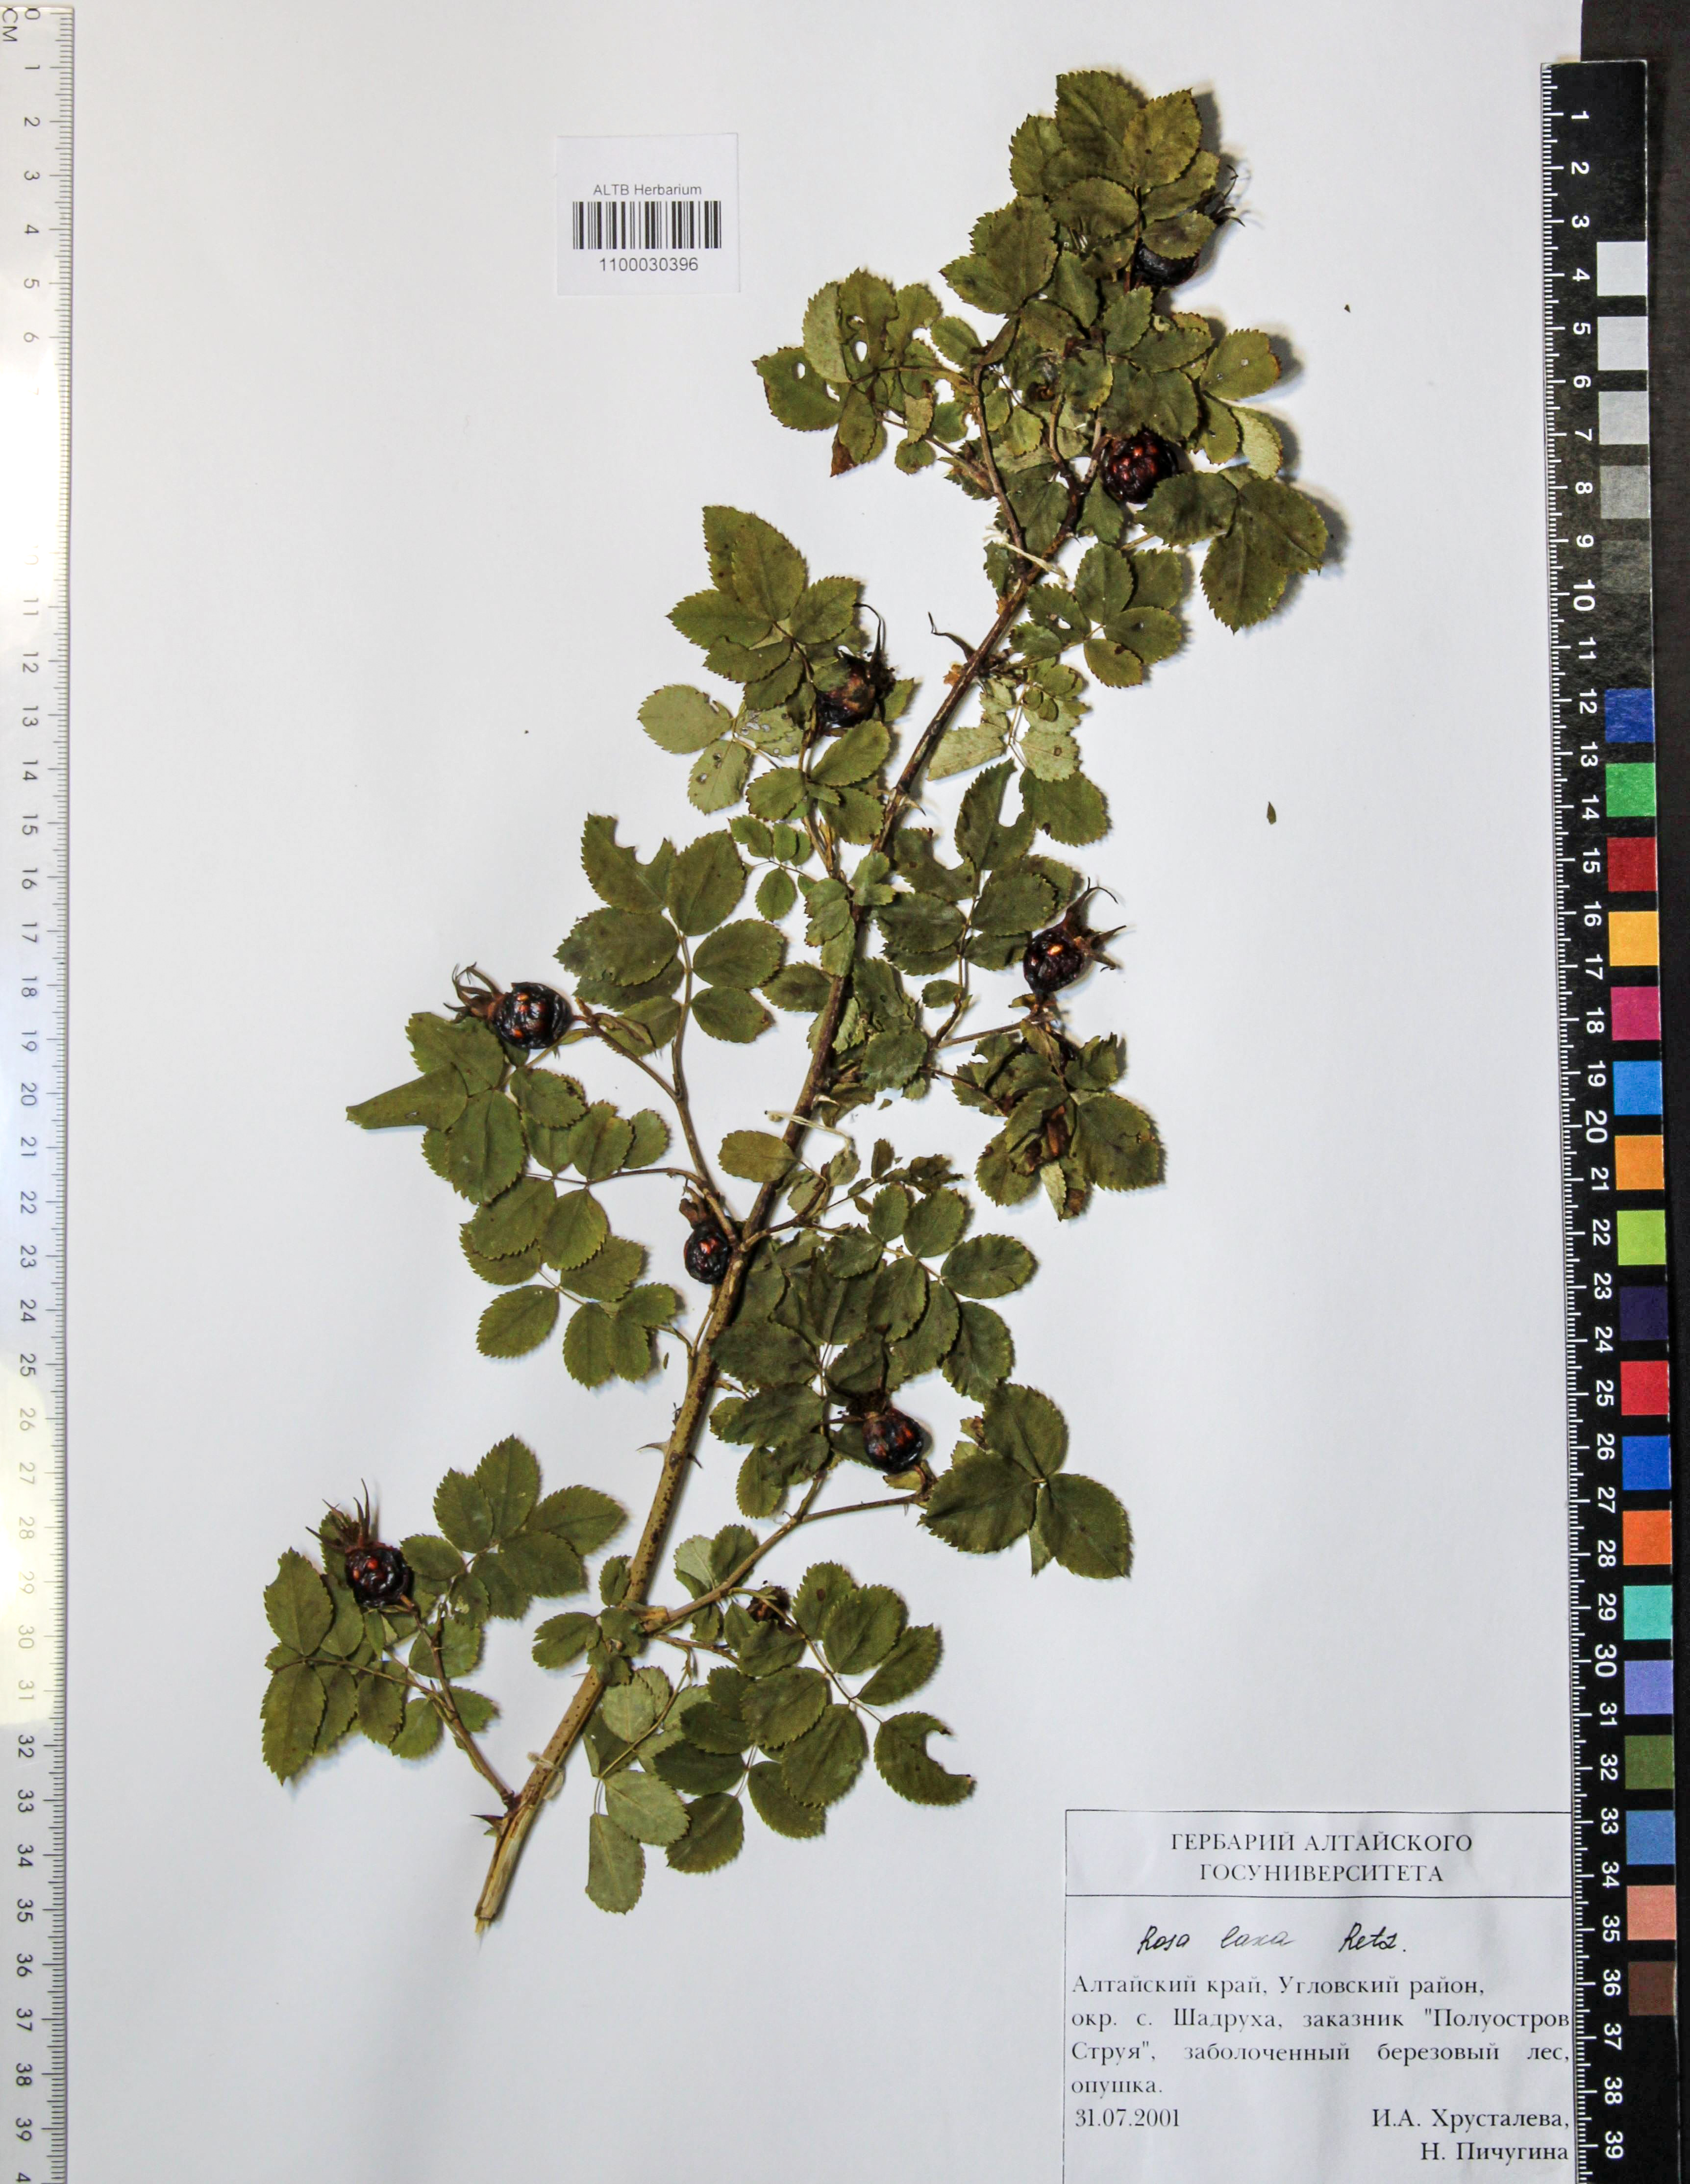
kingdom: Plantae
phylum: Tracheophyta
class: Magnoliopsida
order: Rosales
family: Rosaceae
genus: Rosa
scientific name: Rosa laxa
